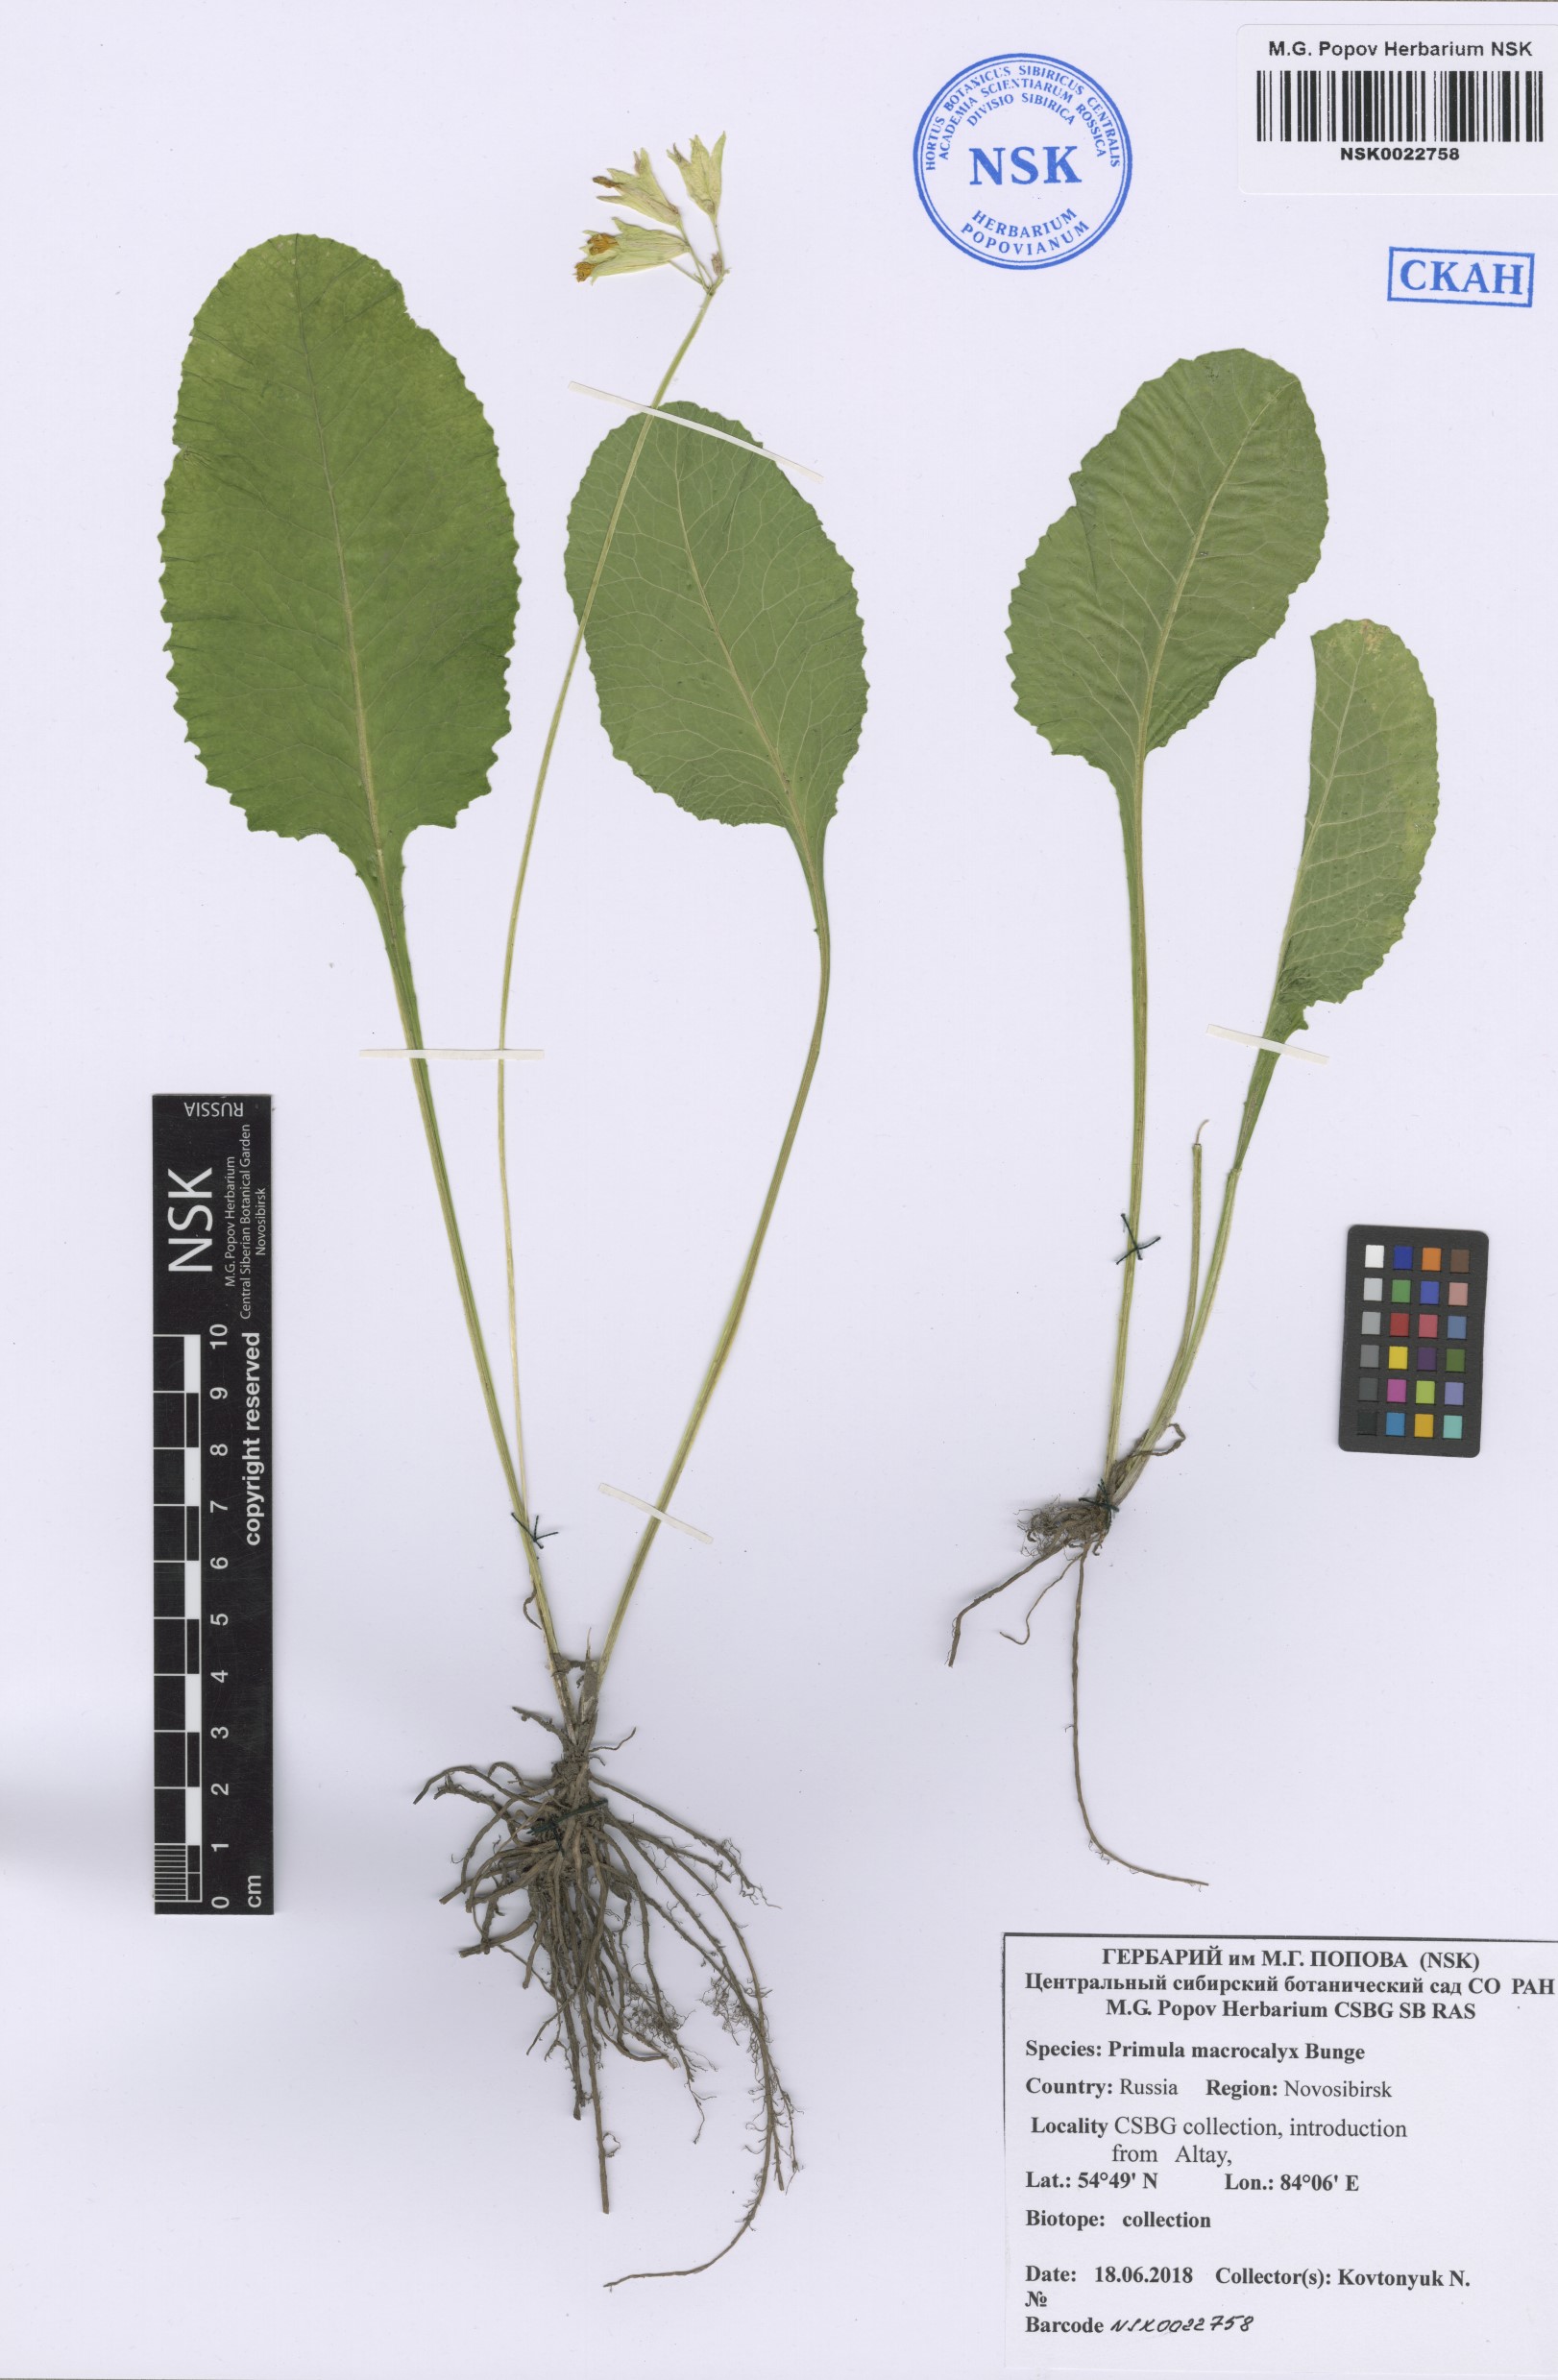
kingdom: Plantae
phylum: Tracheophyta
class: Magnoliopsida
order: Ericales
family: Primulaceae
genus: Primula
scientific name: Primula veris
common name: Cowslip
